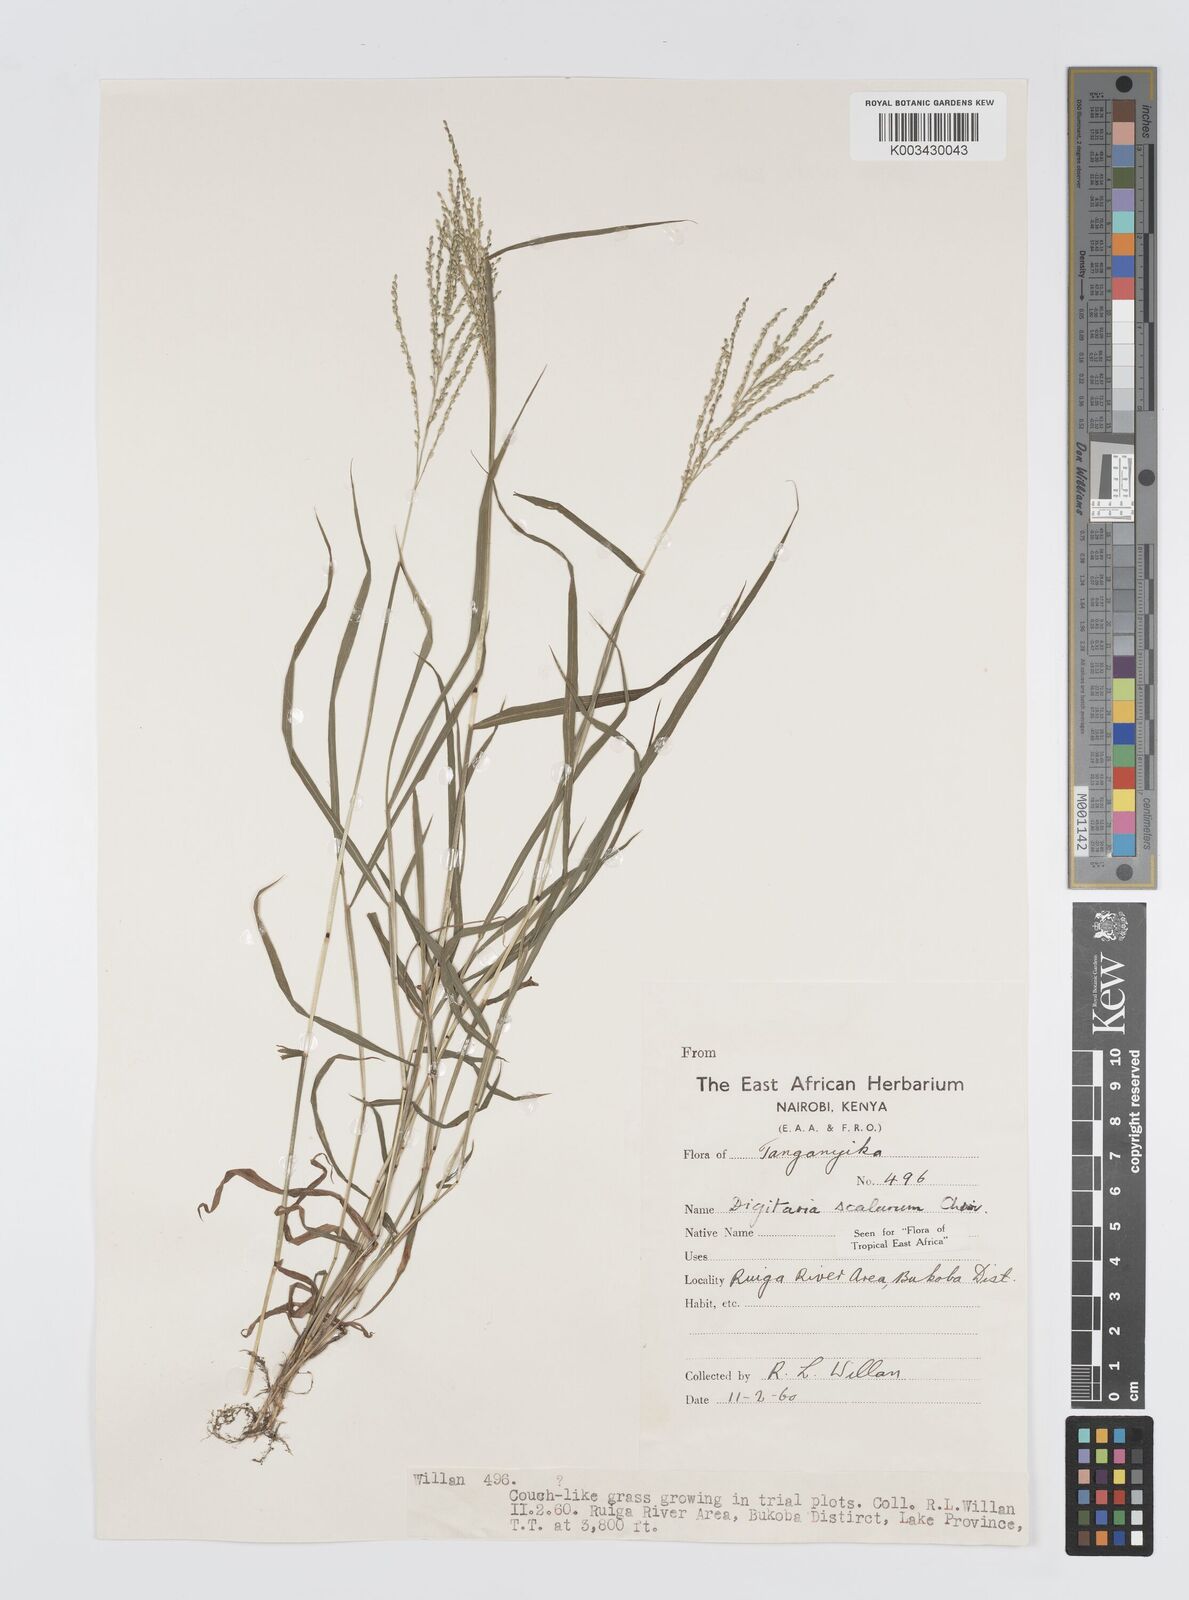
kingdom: Plantae
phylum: Tracheophyta
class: Liliopsida
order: Poales
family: Poaceae
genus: Digitaria
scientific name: Digitaria abyssinica
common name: African couchgrass
